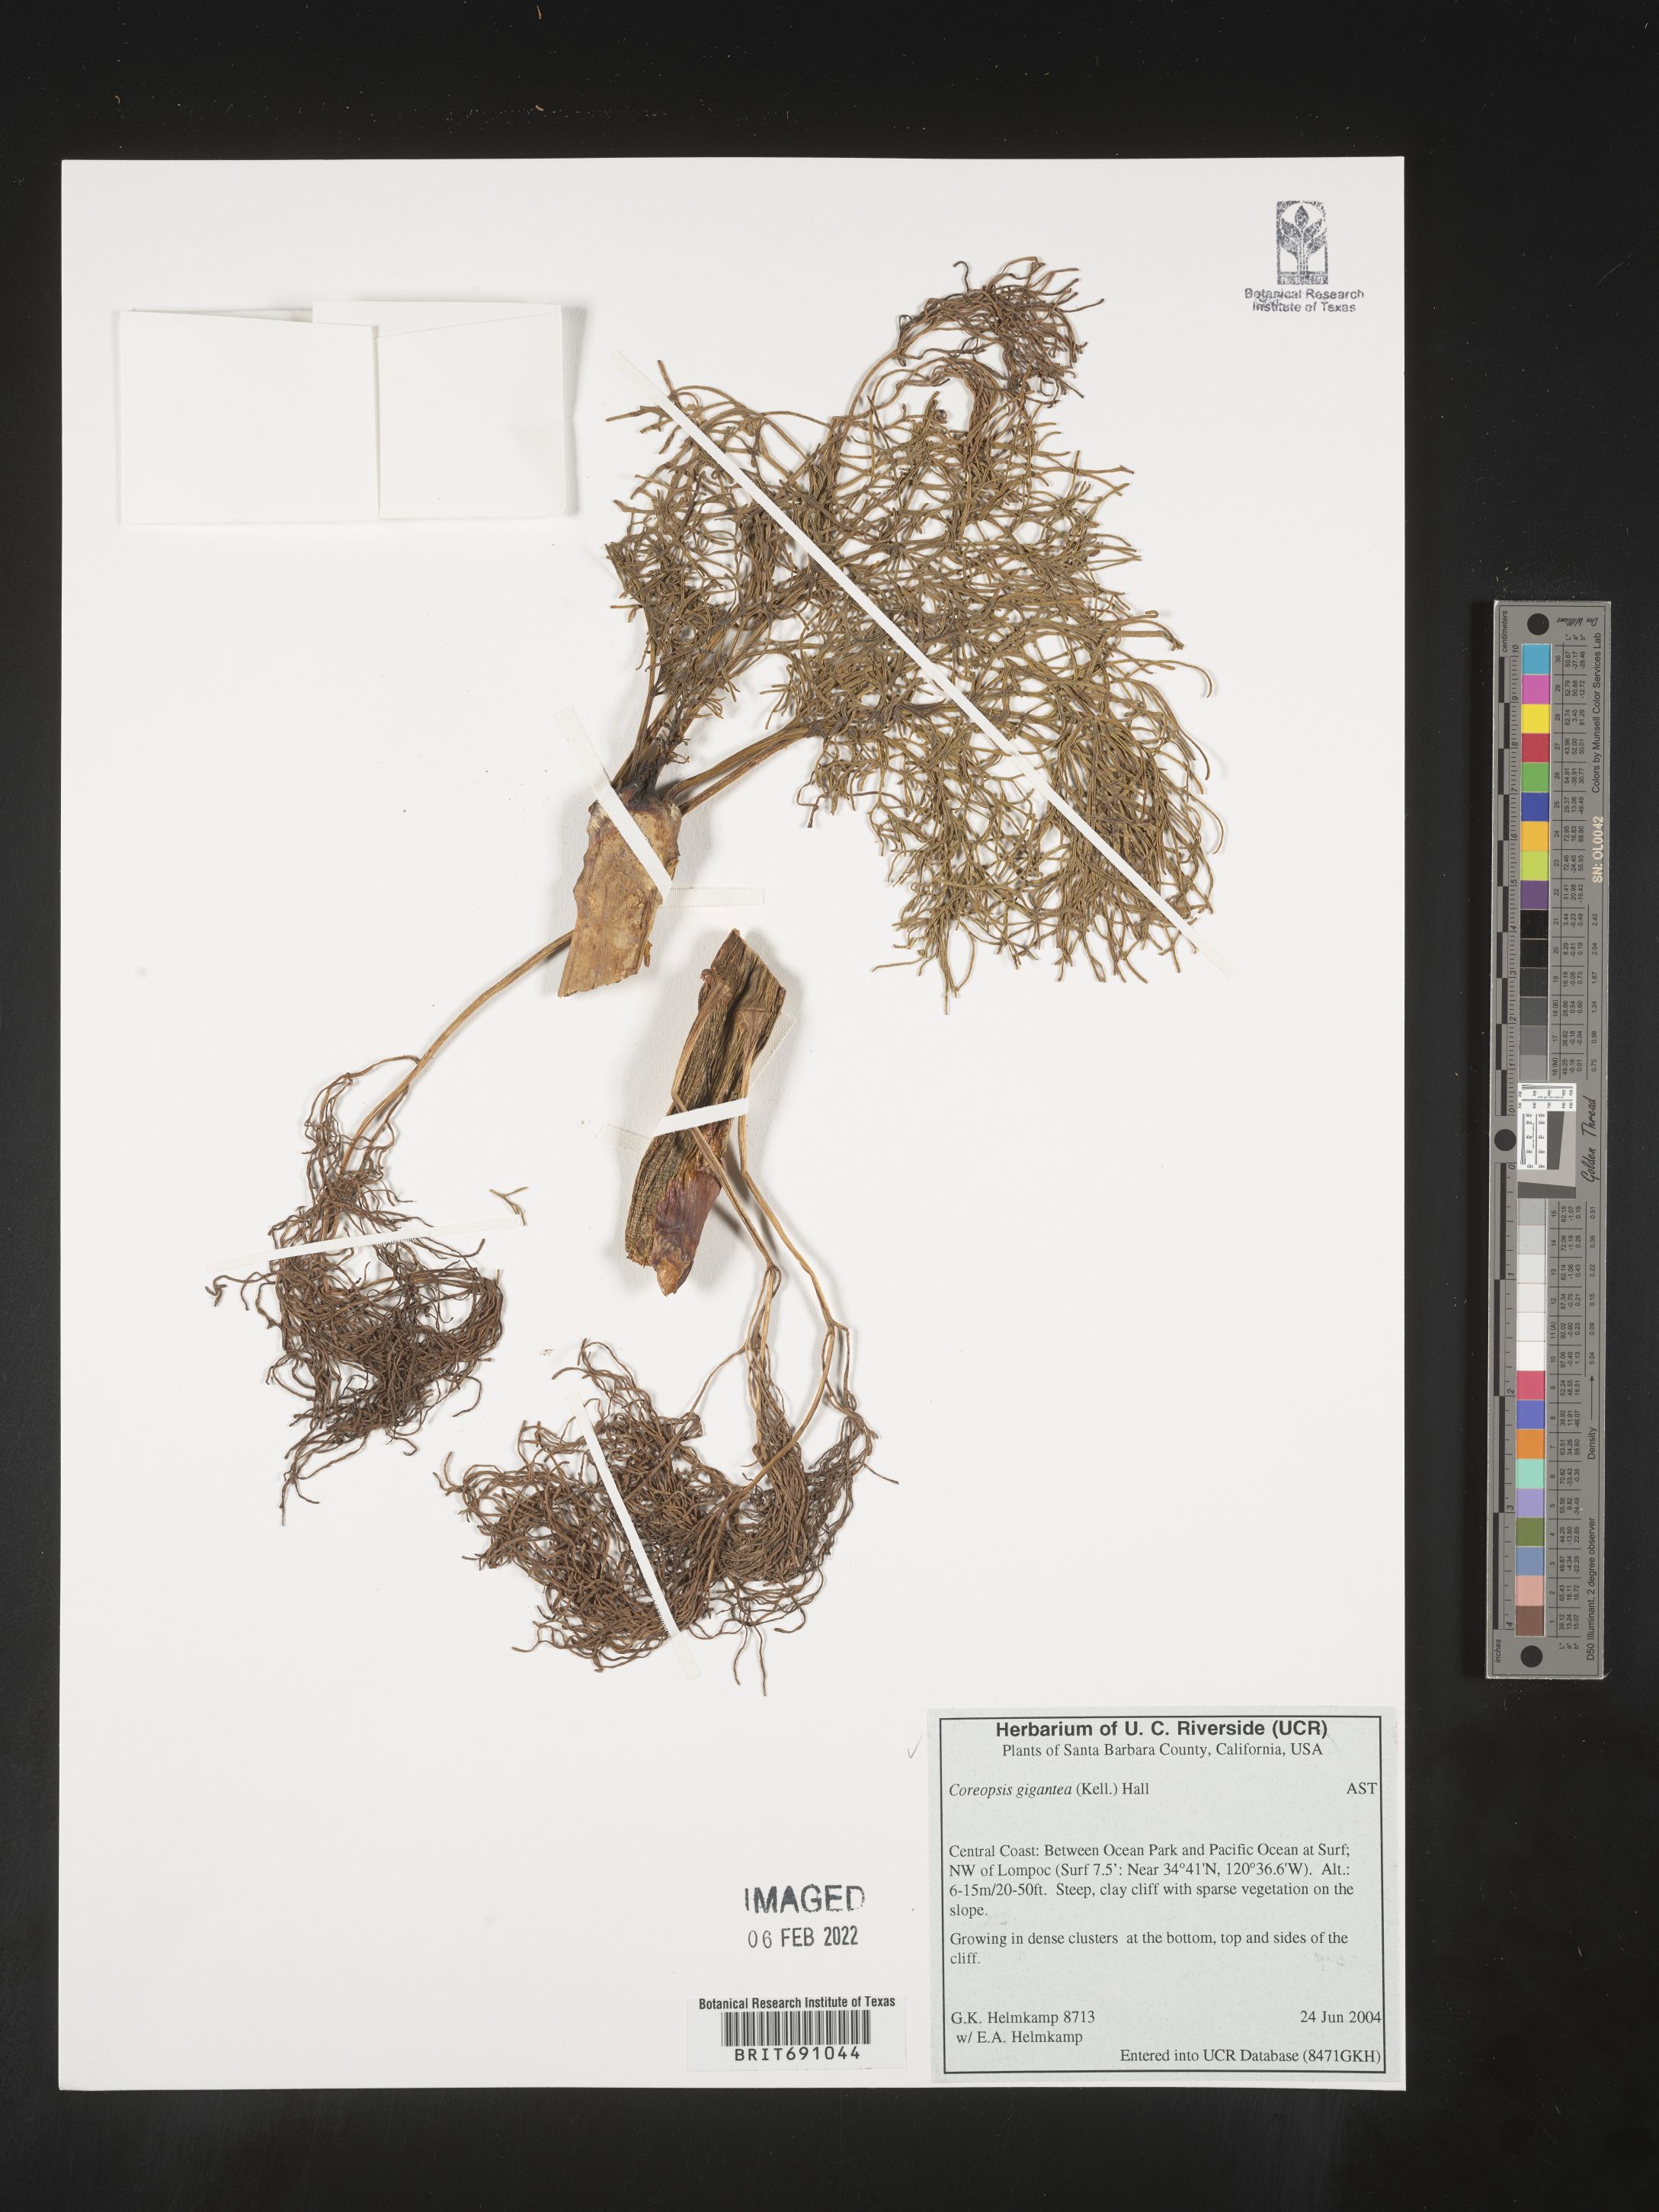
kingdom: Plantae
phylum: Tracheophyta
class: Magnoliopsida
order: Asterales
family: Asteraceae
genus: Coreopsis
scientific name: Coreopsis gigantea
